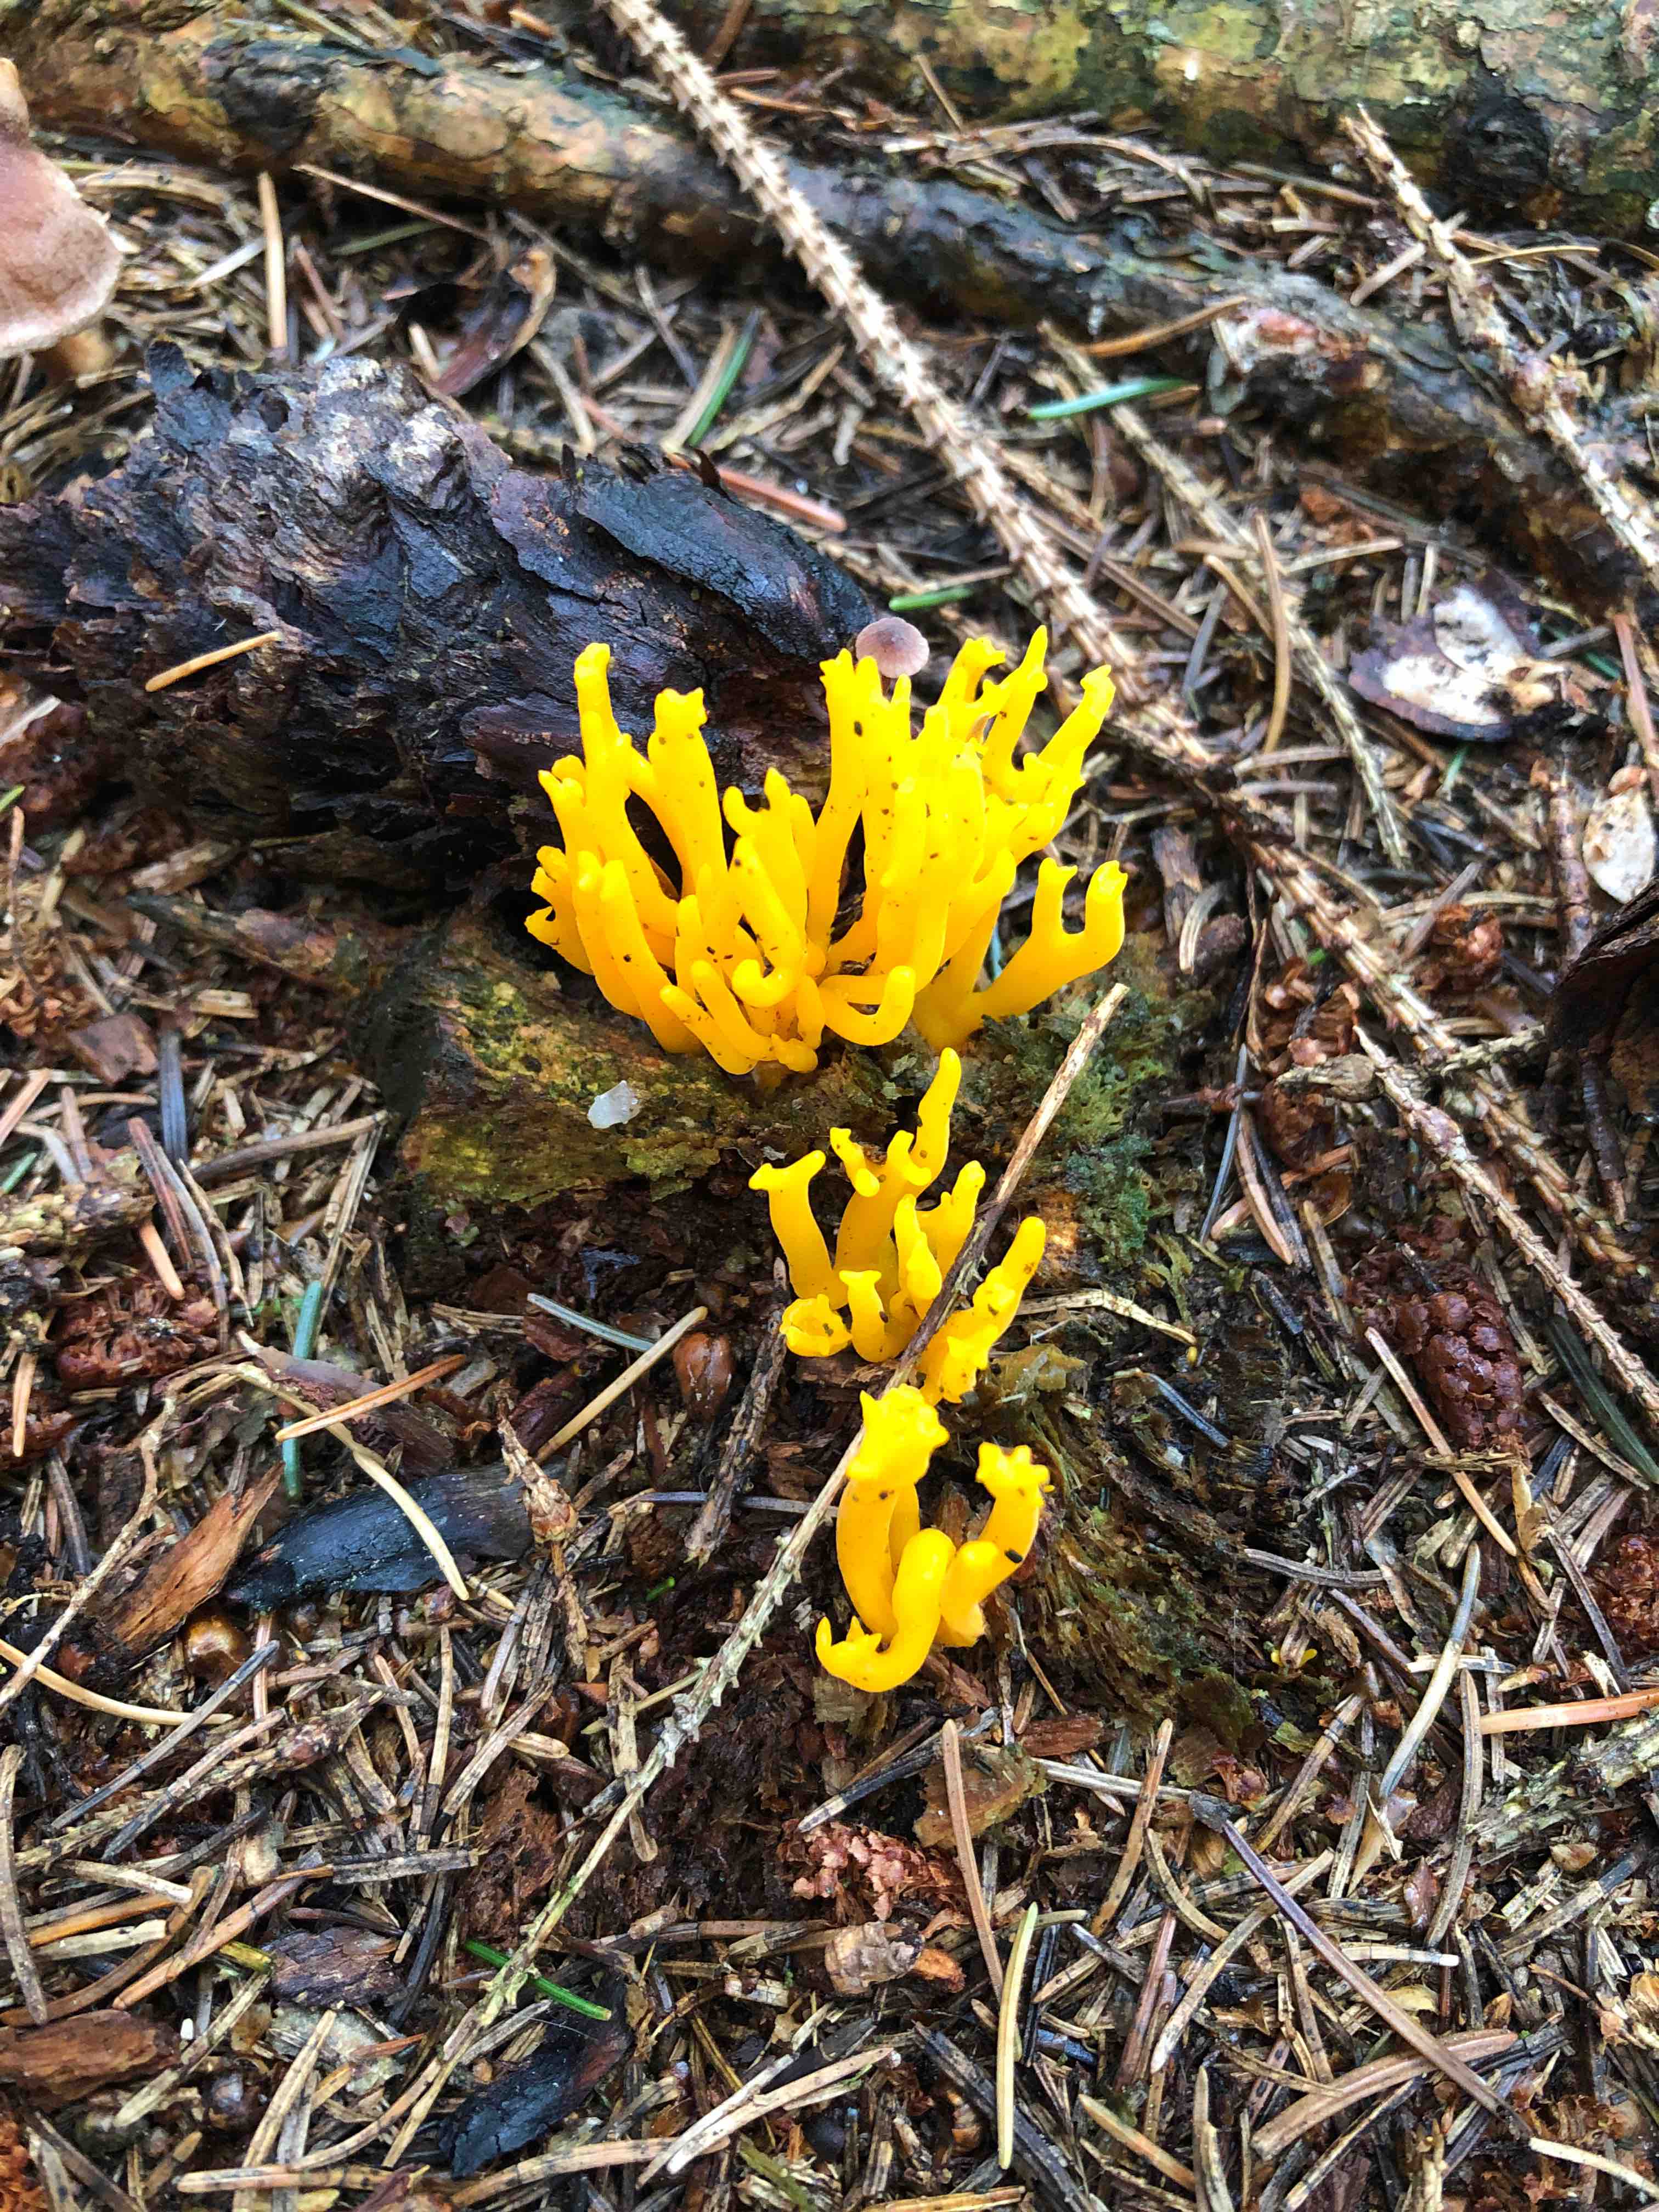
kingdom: Fungi
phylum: Basidiomycota
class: Dacrymycetes
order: Dacrymycetales
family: Dacrymycetaceae
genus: Calocera
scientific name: Calocera viscosa
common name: almindelig guldgaffel
